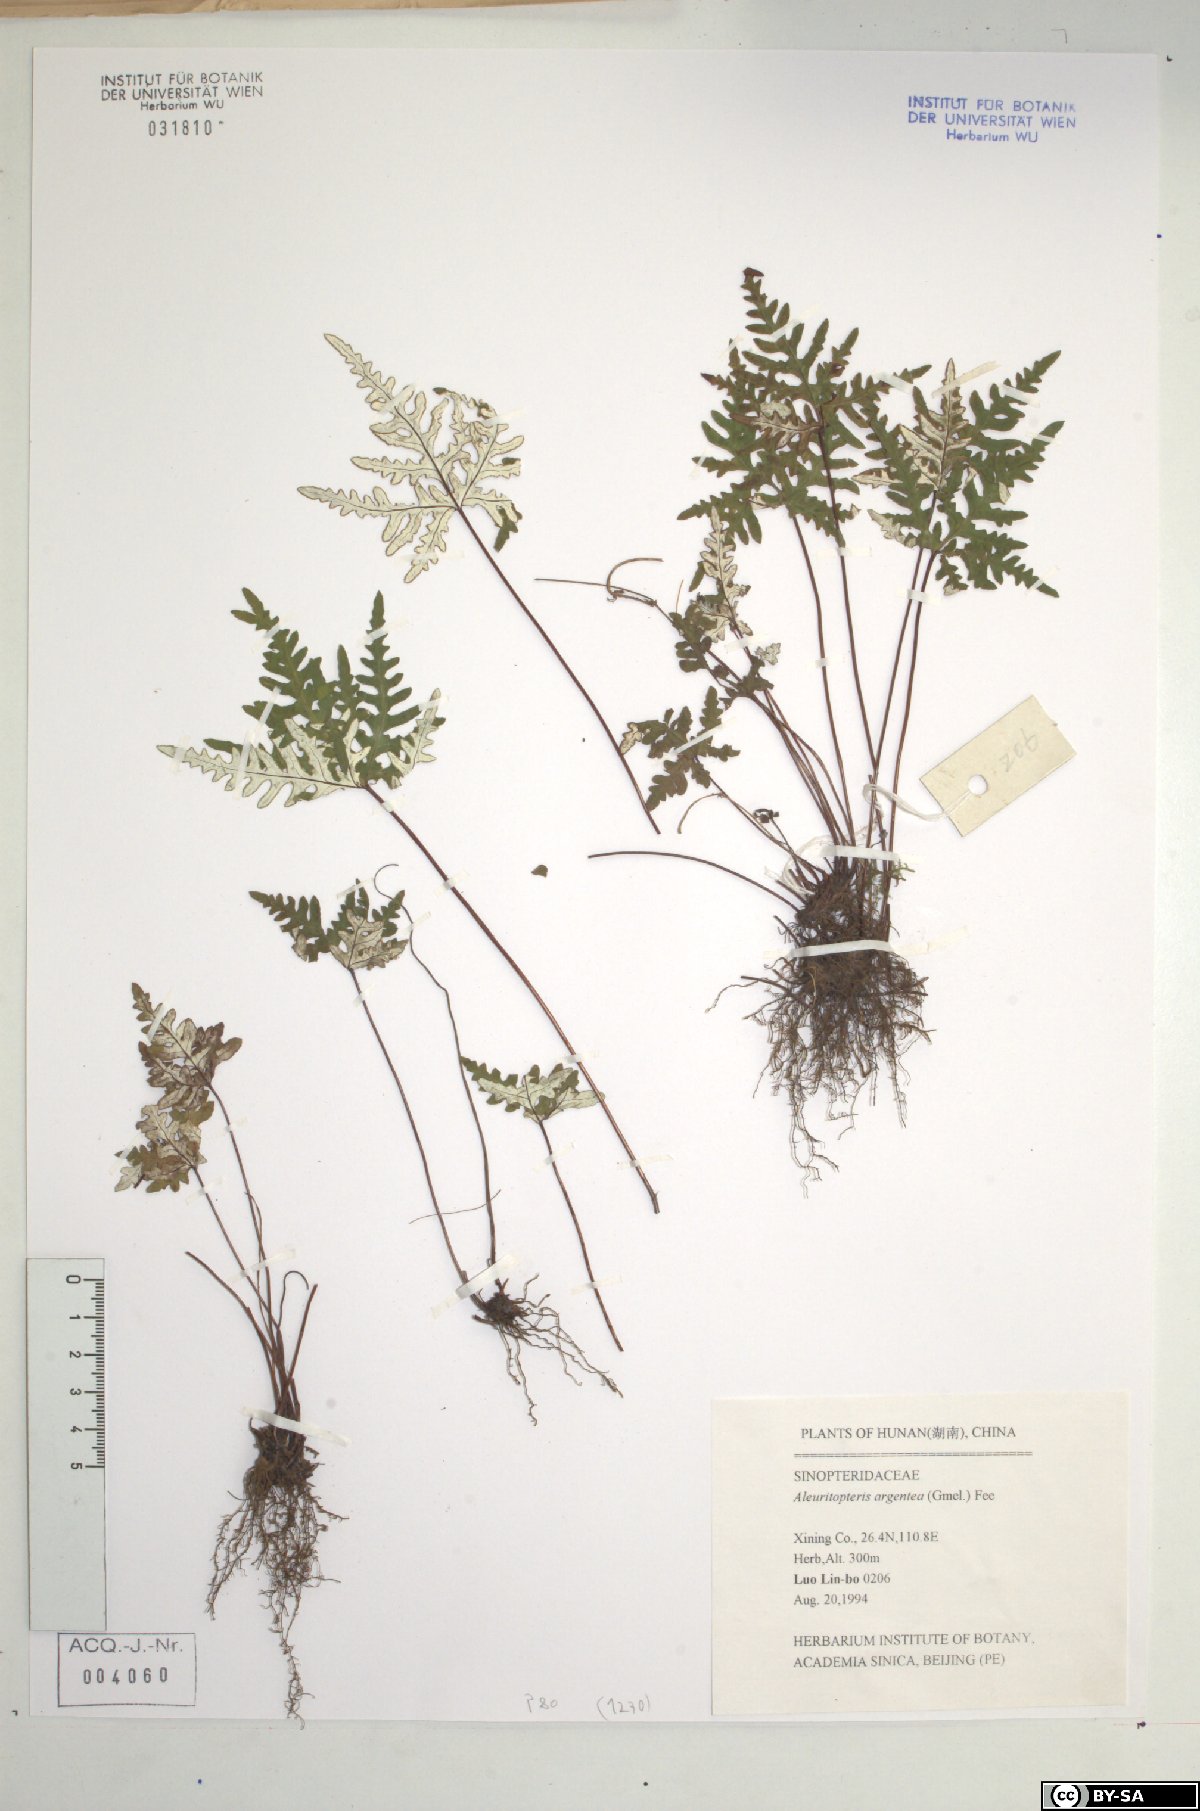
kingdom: Plantae
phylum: Tracheophyta
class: Polypodiopsida
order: Polypodiales
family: Pteridaceae
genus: Aleuritopteris
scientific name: Aleuritopteris argentea
